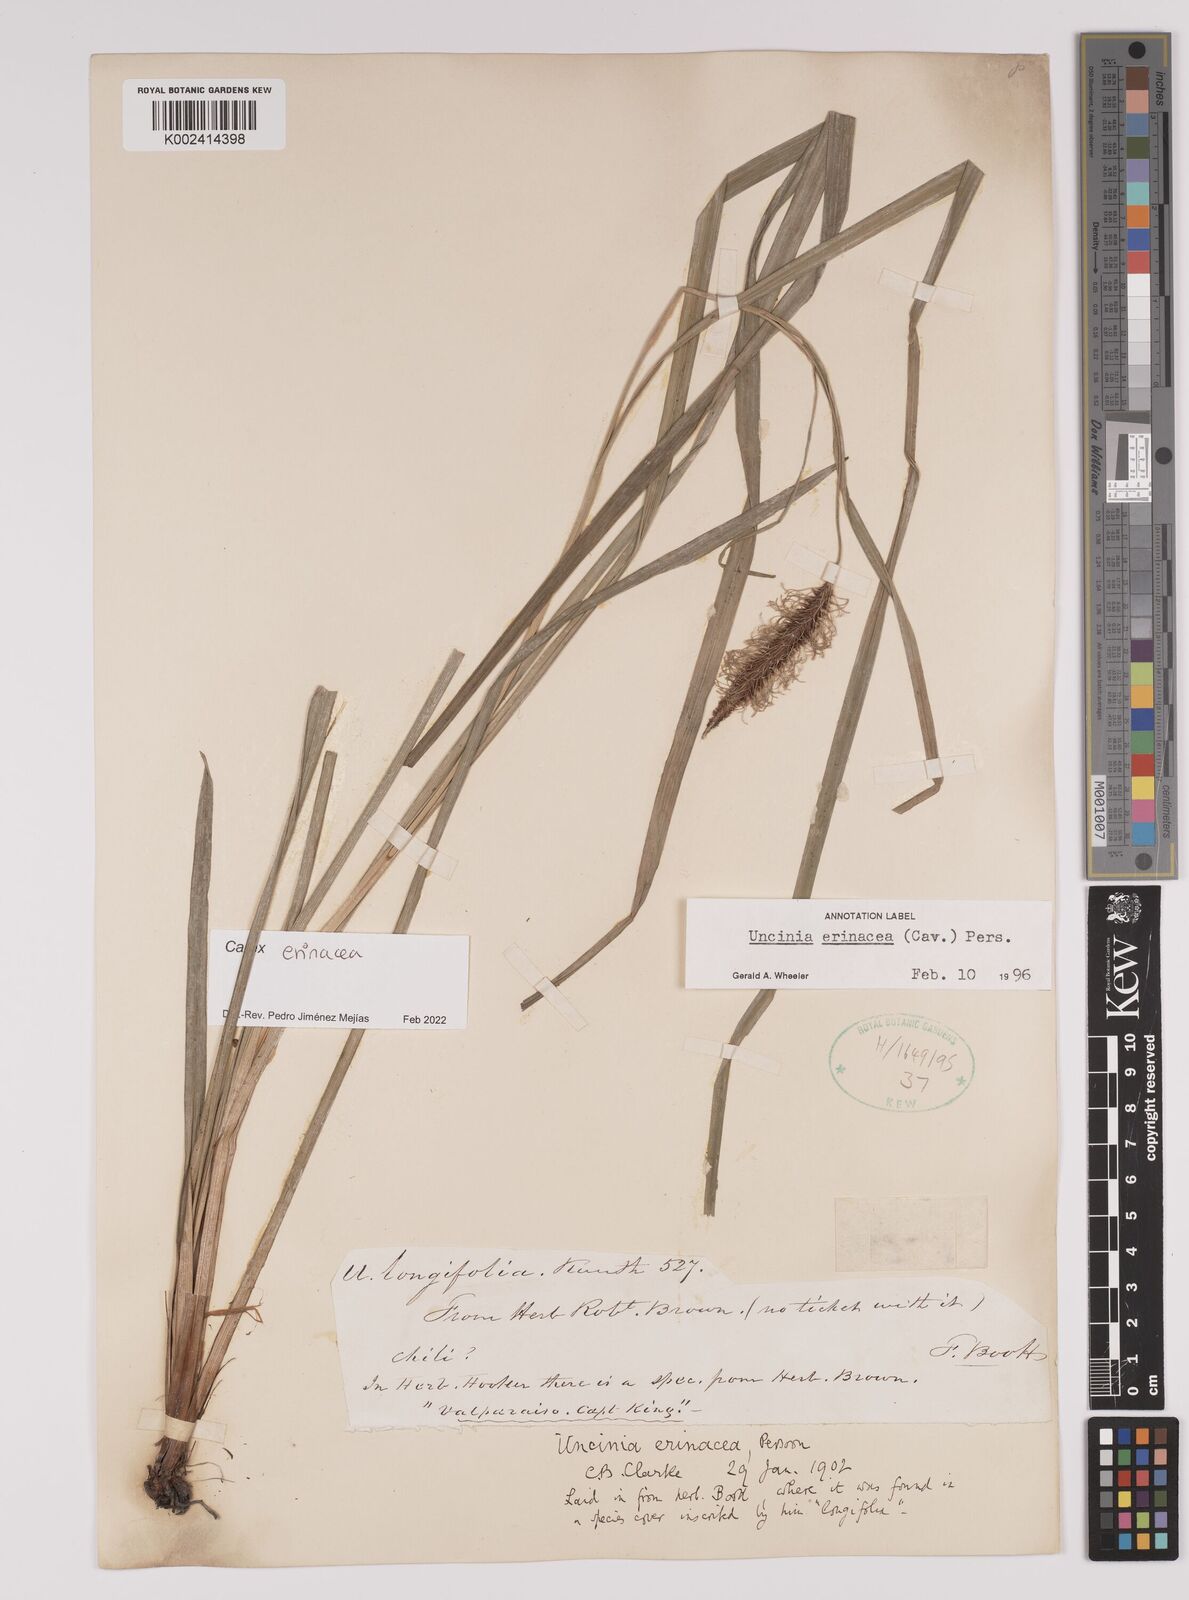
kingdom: Plantae
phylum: Tracheophyta
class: Liliopsida
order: Poales
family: Cyperaceae
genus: Carex
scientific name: Carex erinacea
